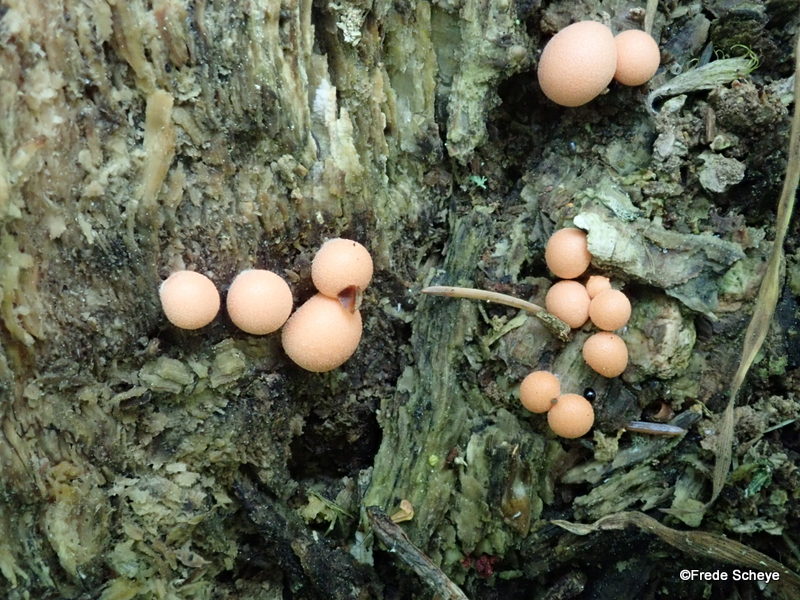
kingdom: Protozoa
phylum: Mycetozoa
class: Myxomycetes
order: Cribrariales
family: Tubiferaceae
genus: Lycogala
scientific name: Lycogala epidendrum
